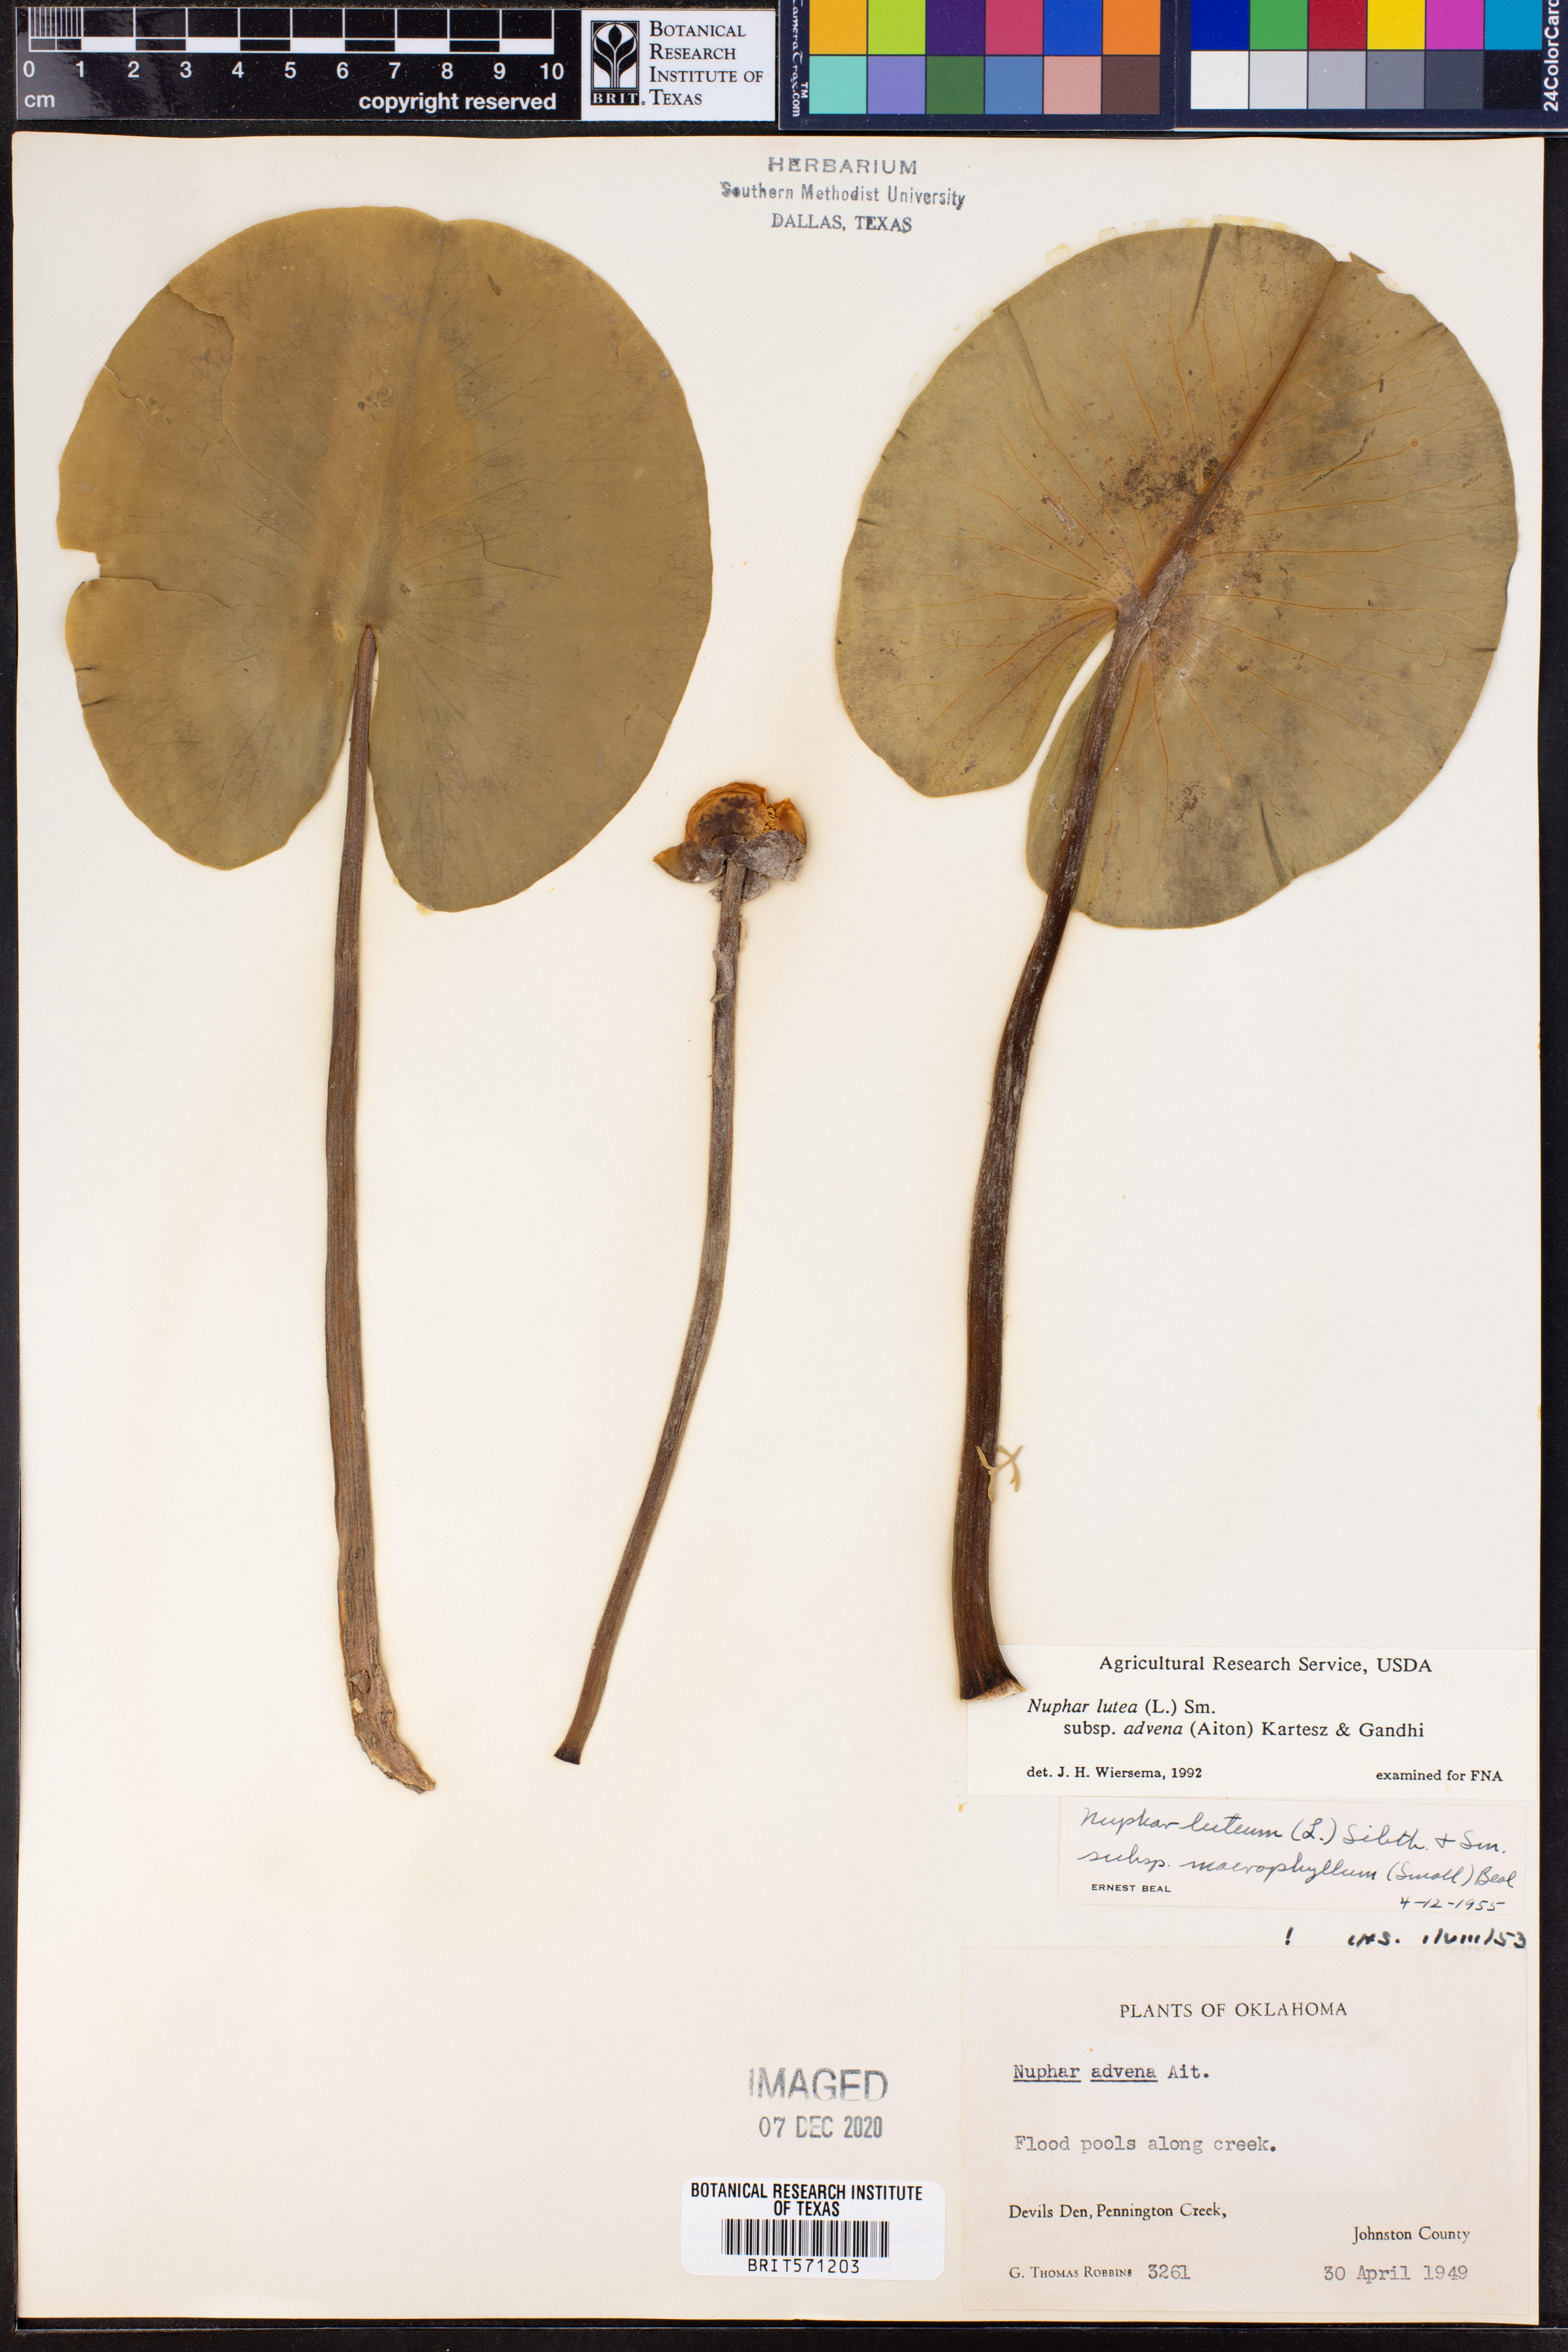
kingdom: Plantae
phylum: Tracheophyta
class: Magnoliopsida
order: Nymphaeales
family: Nymphaeaceae
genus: Nuphar
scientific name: Nuphar advena
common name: Spatter-dock
